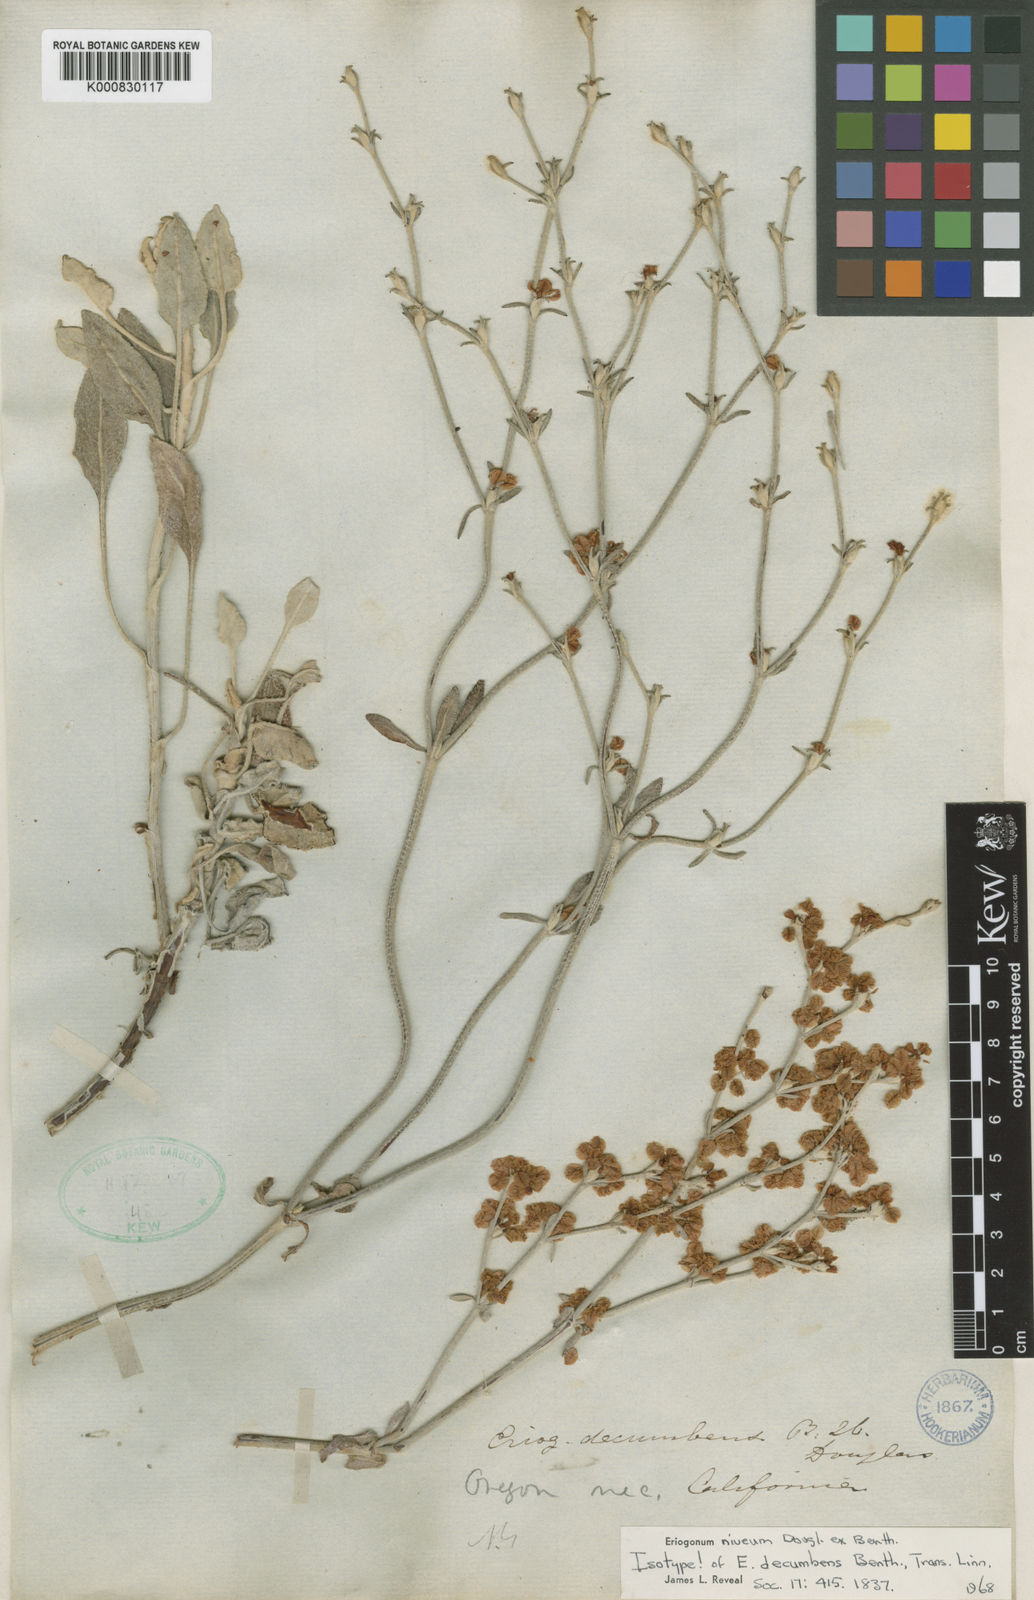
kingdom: Plantae
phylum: Tracheophyta
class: Magnoliopsida
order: Caryophyllales
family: Polygonaceae
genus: Eriogonum
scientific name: Eriogonum niveum
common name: Snow wild buckwheat
